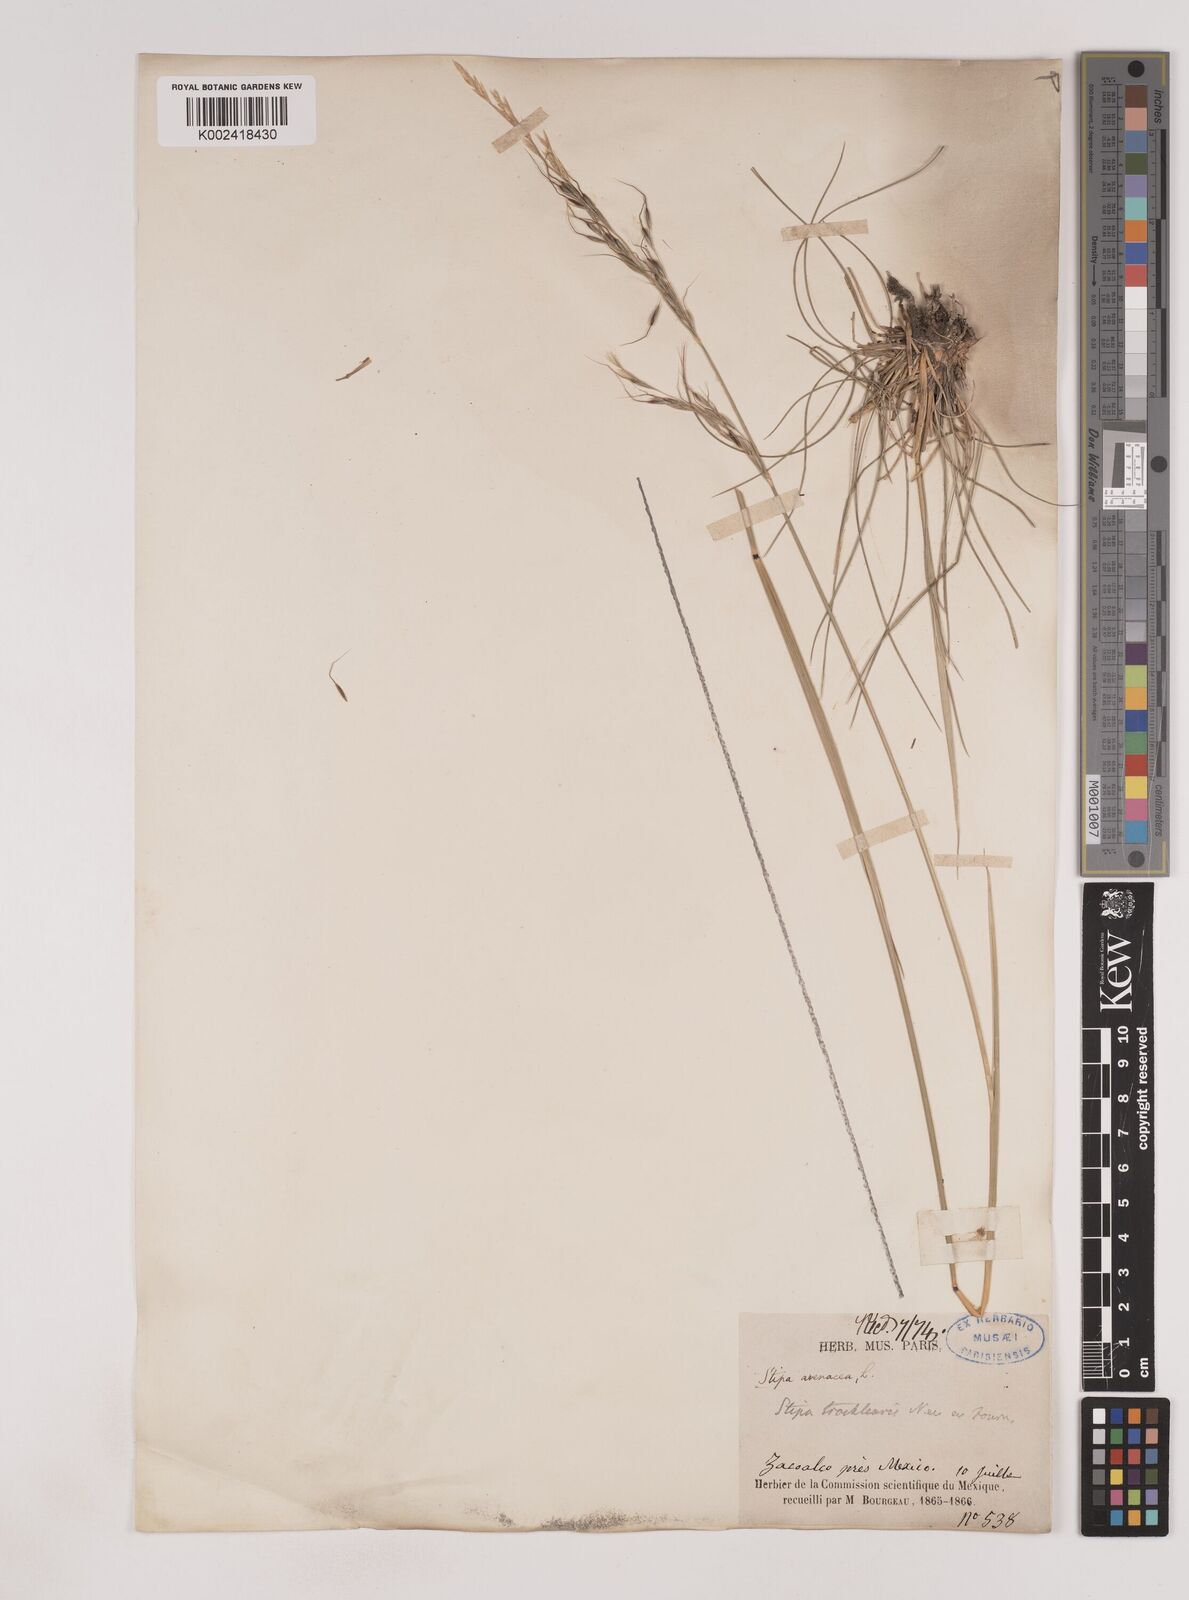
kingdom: Plantae
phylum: Tracheophyta
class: Liliopsida
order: Poales
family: Poaceae
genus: Piptochaetium
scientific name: Piptochaetium virescens
